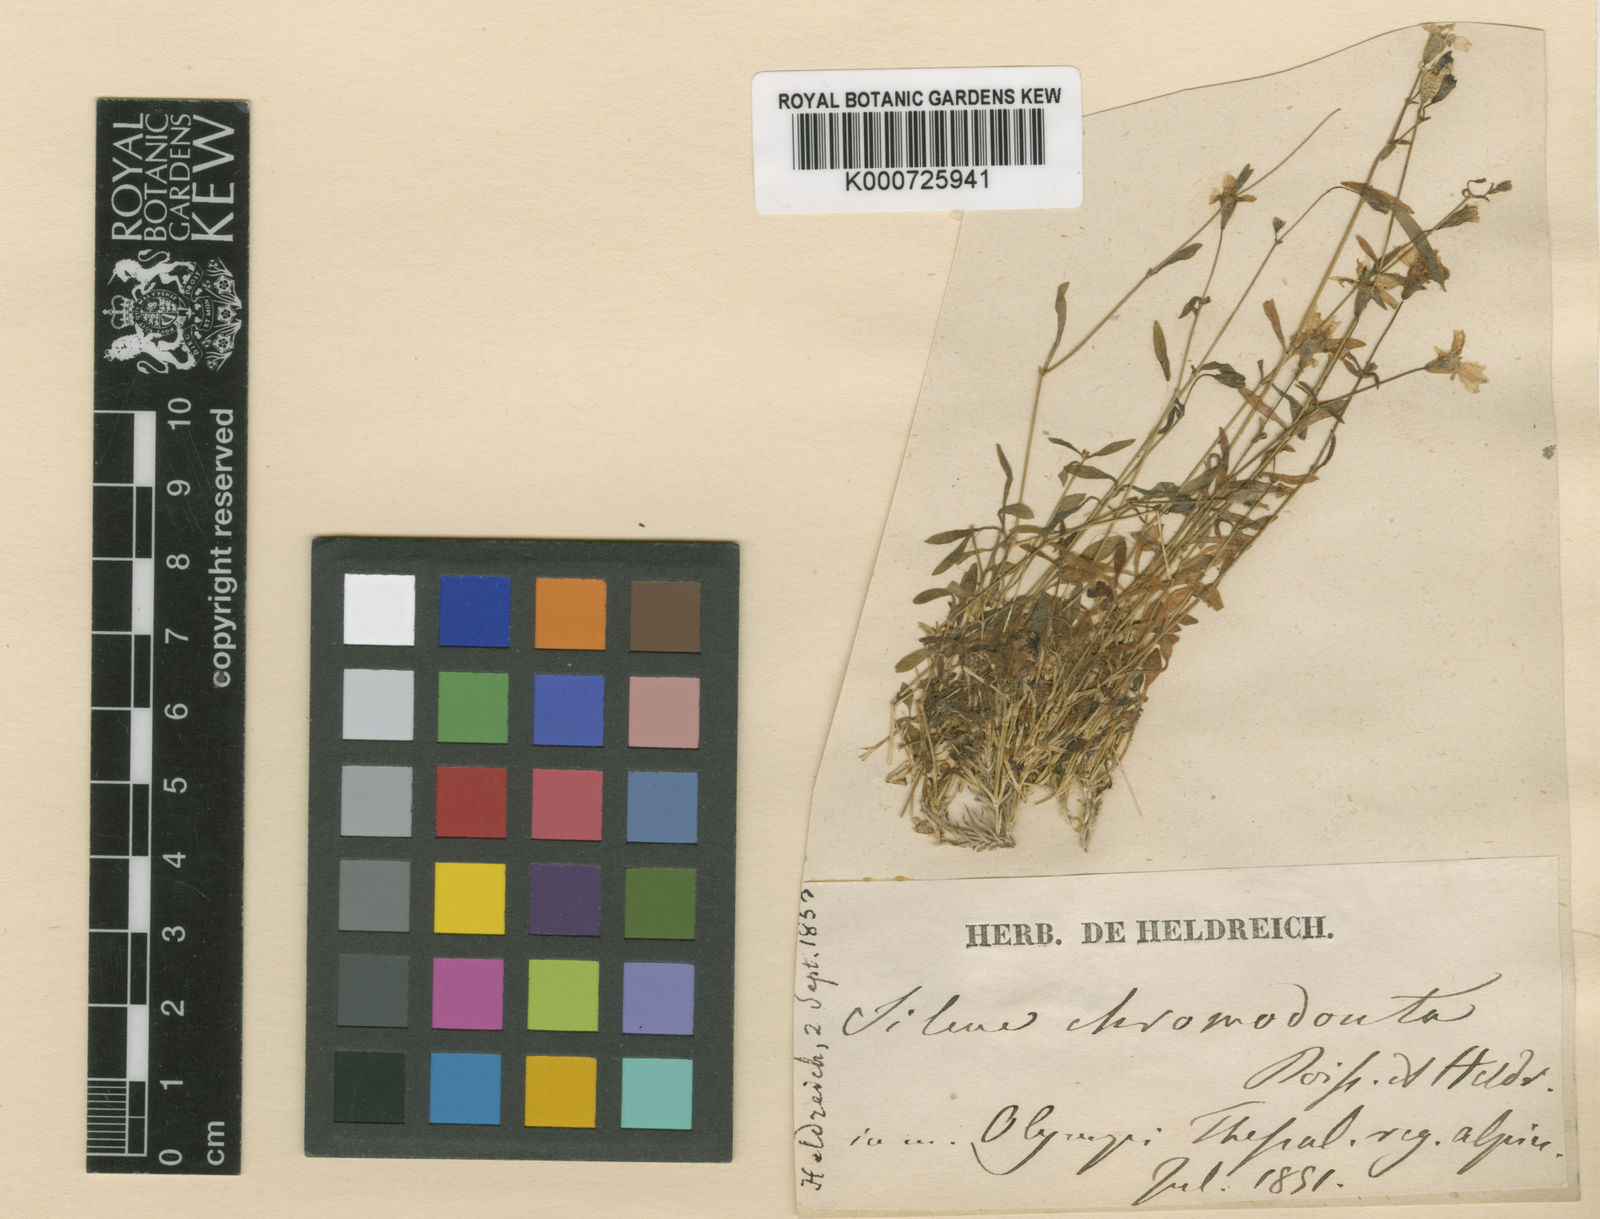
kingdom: Plantae
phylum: Tracheophyta
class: Magnoliopsida
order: Caryophyllales
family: Caryophyllaceae
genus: Heliosperma
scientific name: Heliosperma pusillum
